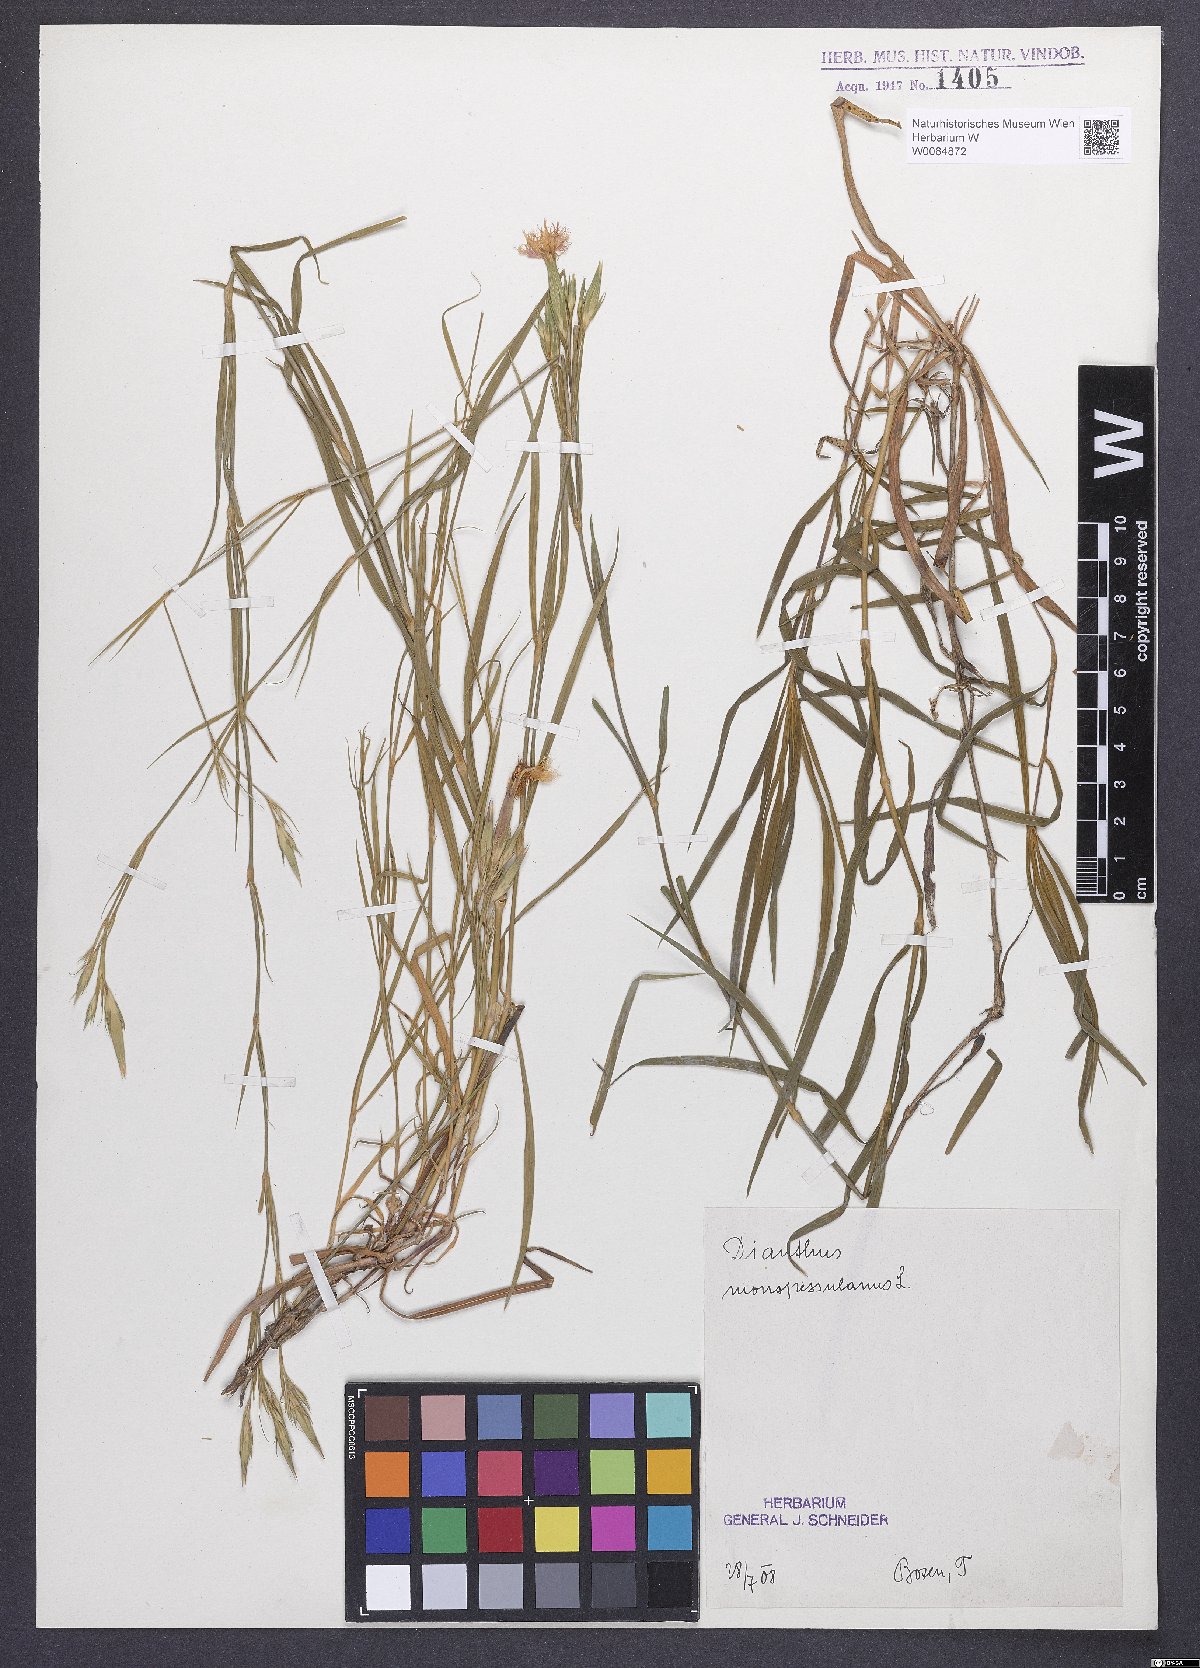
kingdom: Plantae
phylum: Tracheophyta
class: Magnoliopsida
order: Caryophyllales
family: Caryophyllaceae
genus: Dianthus
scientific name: Dianthus hyssopifolius
